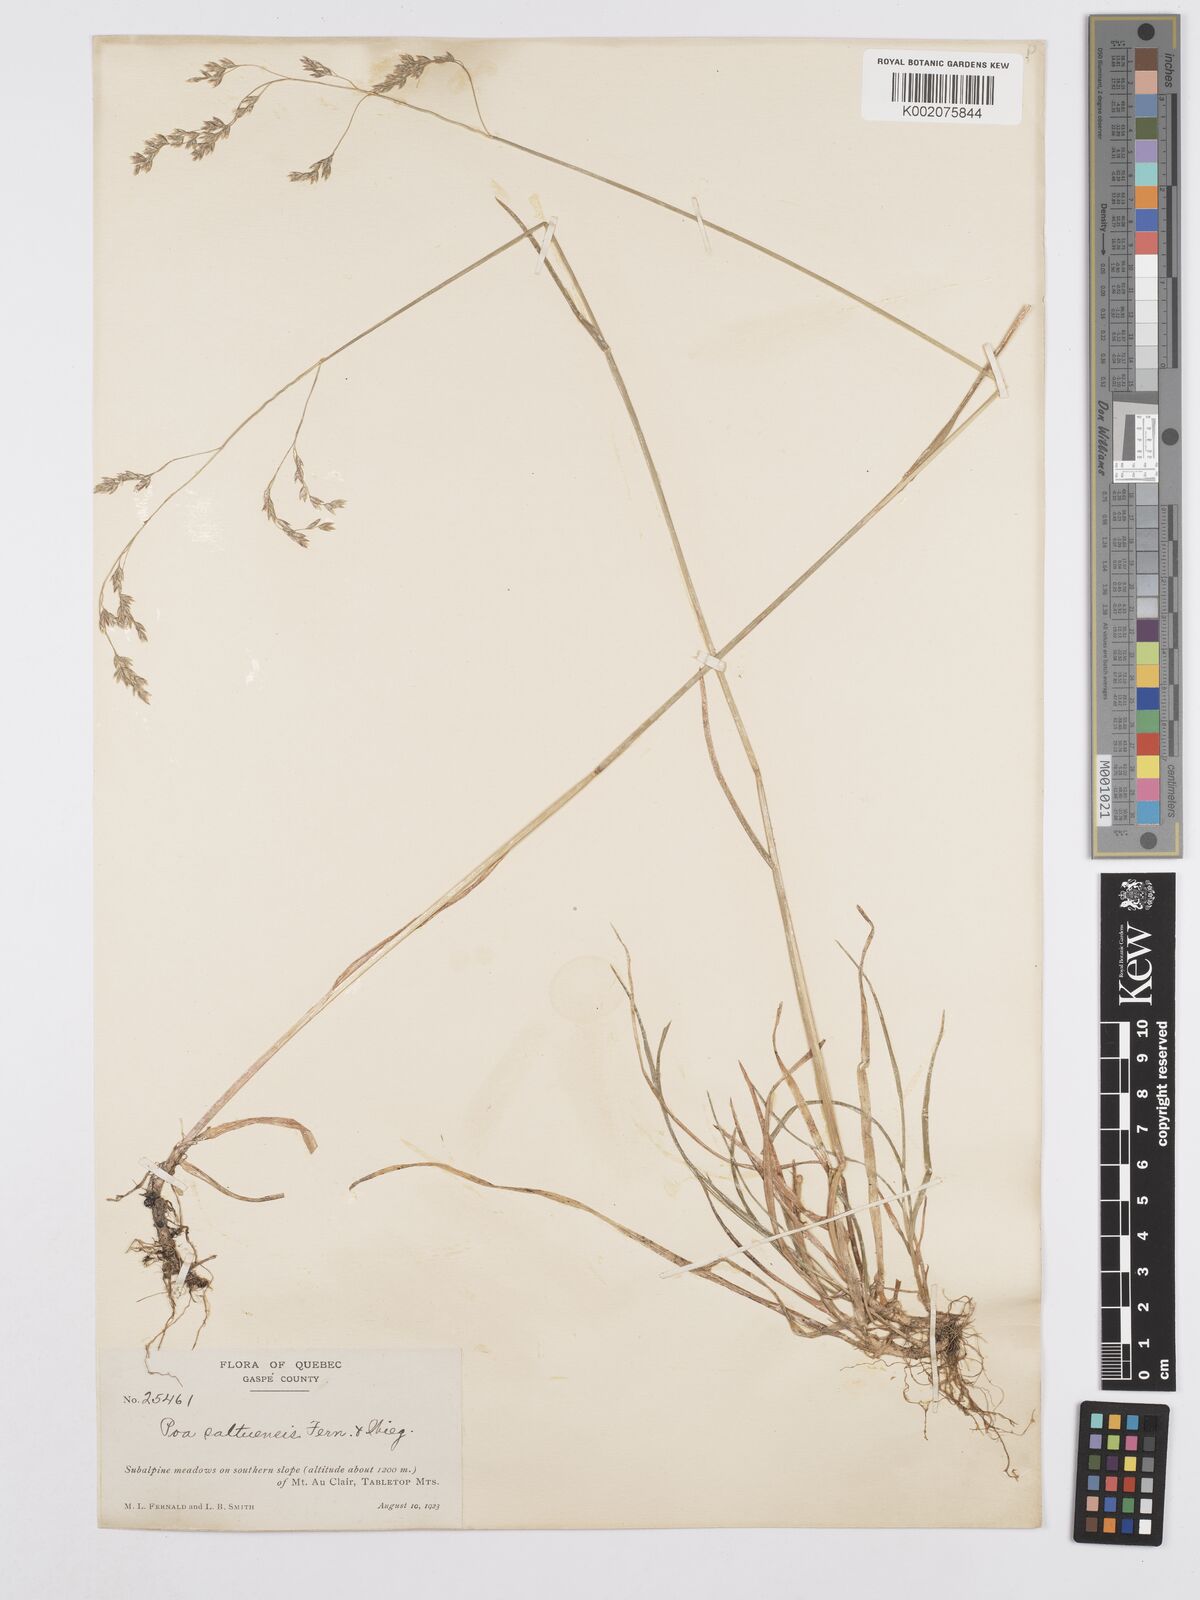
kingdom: Plantae
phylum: Tracheophyta
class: Liliopsida
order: Poales
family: Poaceae
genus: Poa
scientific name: Poa saltuensis
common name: Bushy pasture speargrass
